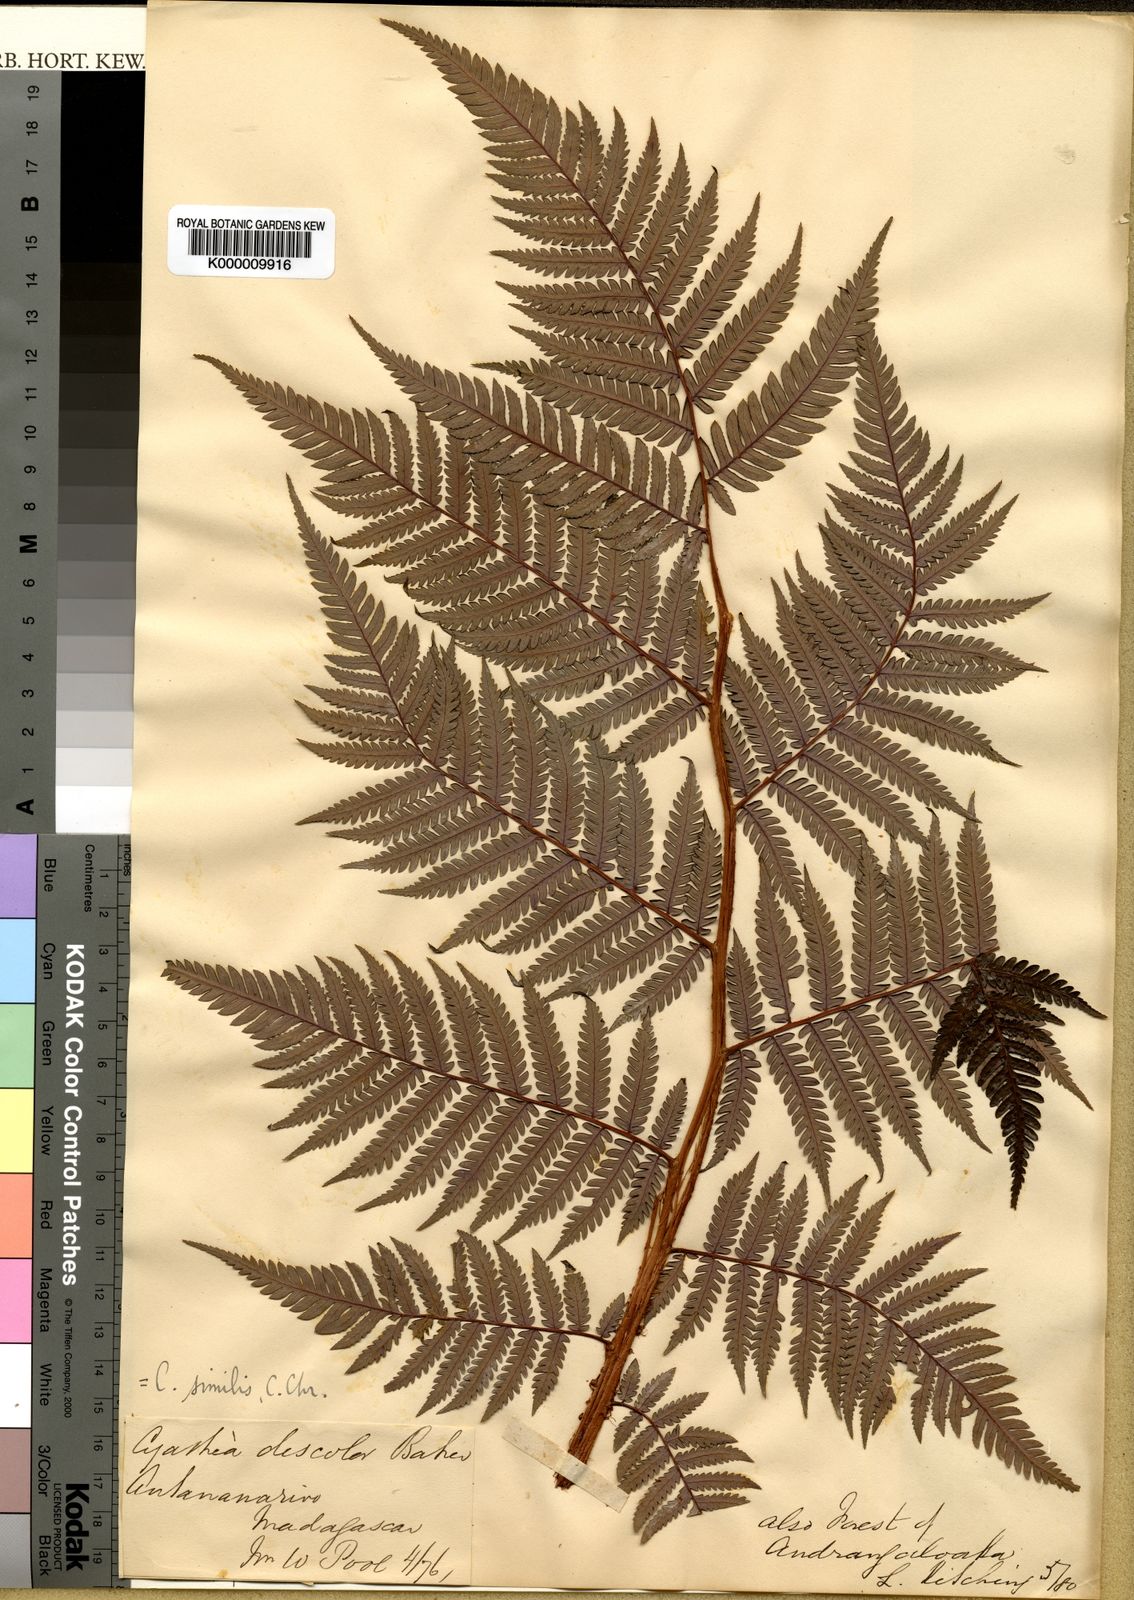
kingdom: Plantae
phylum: Tracheophyta
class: Polypodiopsida
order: Cyatheales
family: Cyatheaceae
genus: Alsophila
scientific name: Alsophila similis
